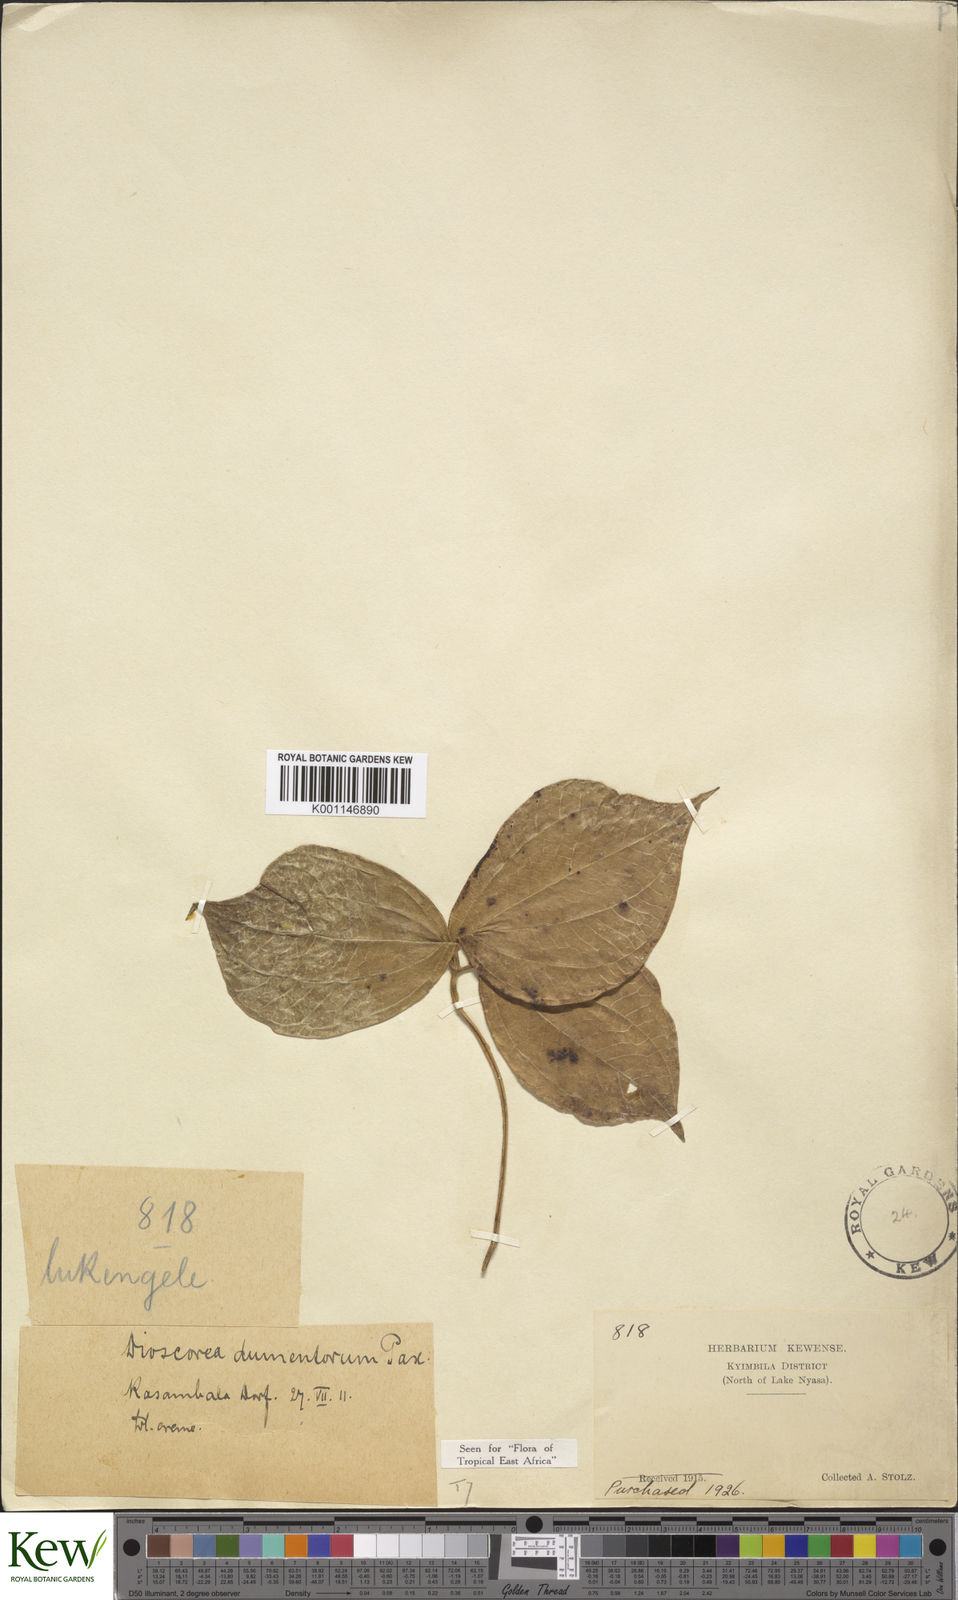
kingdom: Plantae
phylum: Tracheophyta
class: Liliopsida
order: Dioscoreales
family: Dioscoreaceae
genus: Dioscorea
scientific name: Dioscorea dumetorum
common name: African bitter yam
